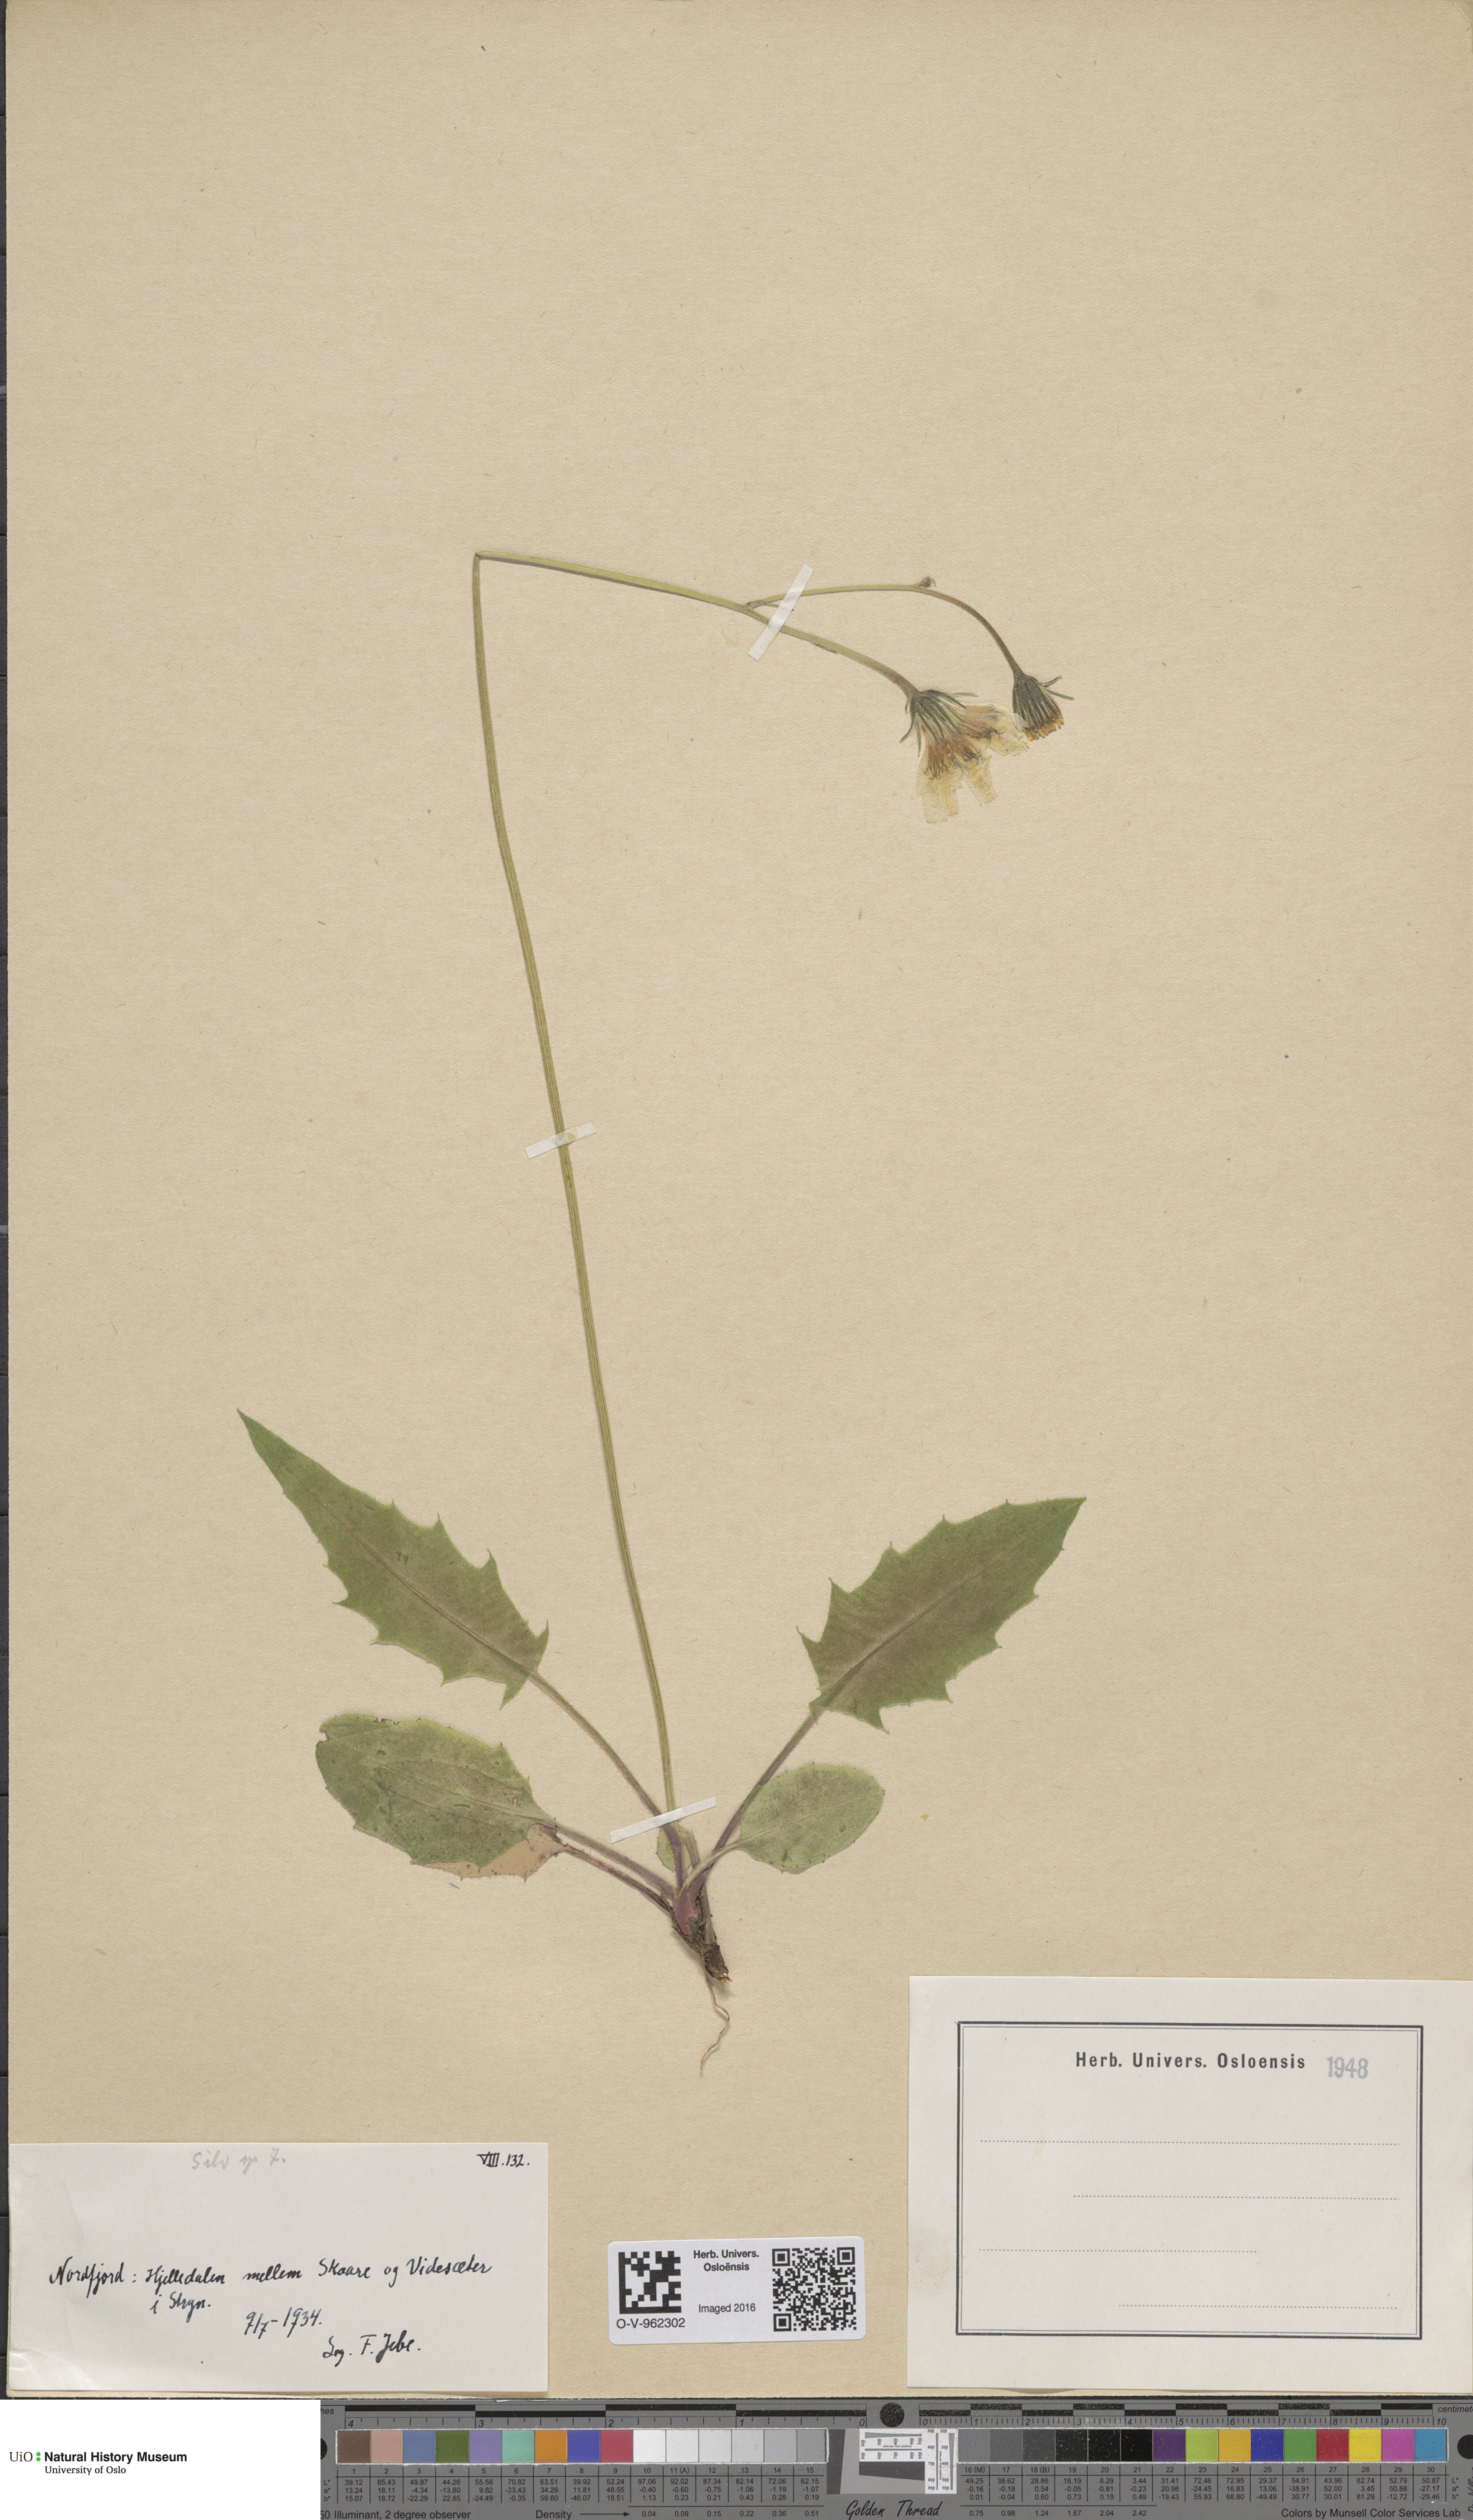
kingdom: Plantae
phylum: Tracheophyta
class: Magnoliopsida
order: Asterales
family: Asteraceae
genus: Hieracium
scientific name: Hieracium
